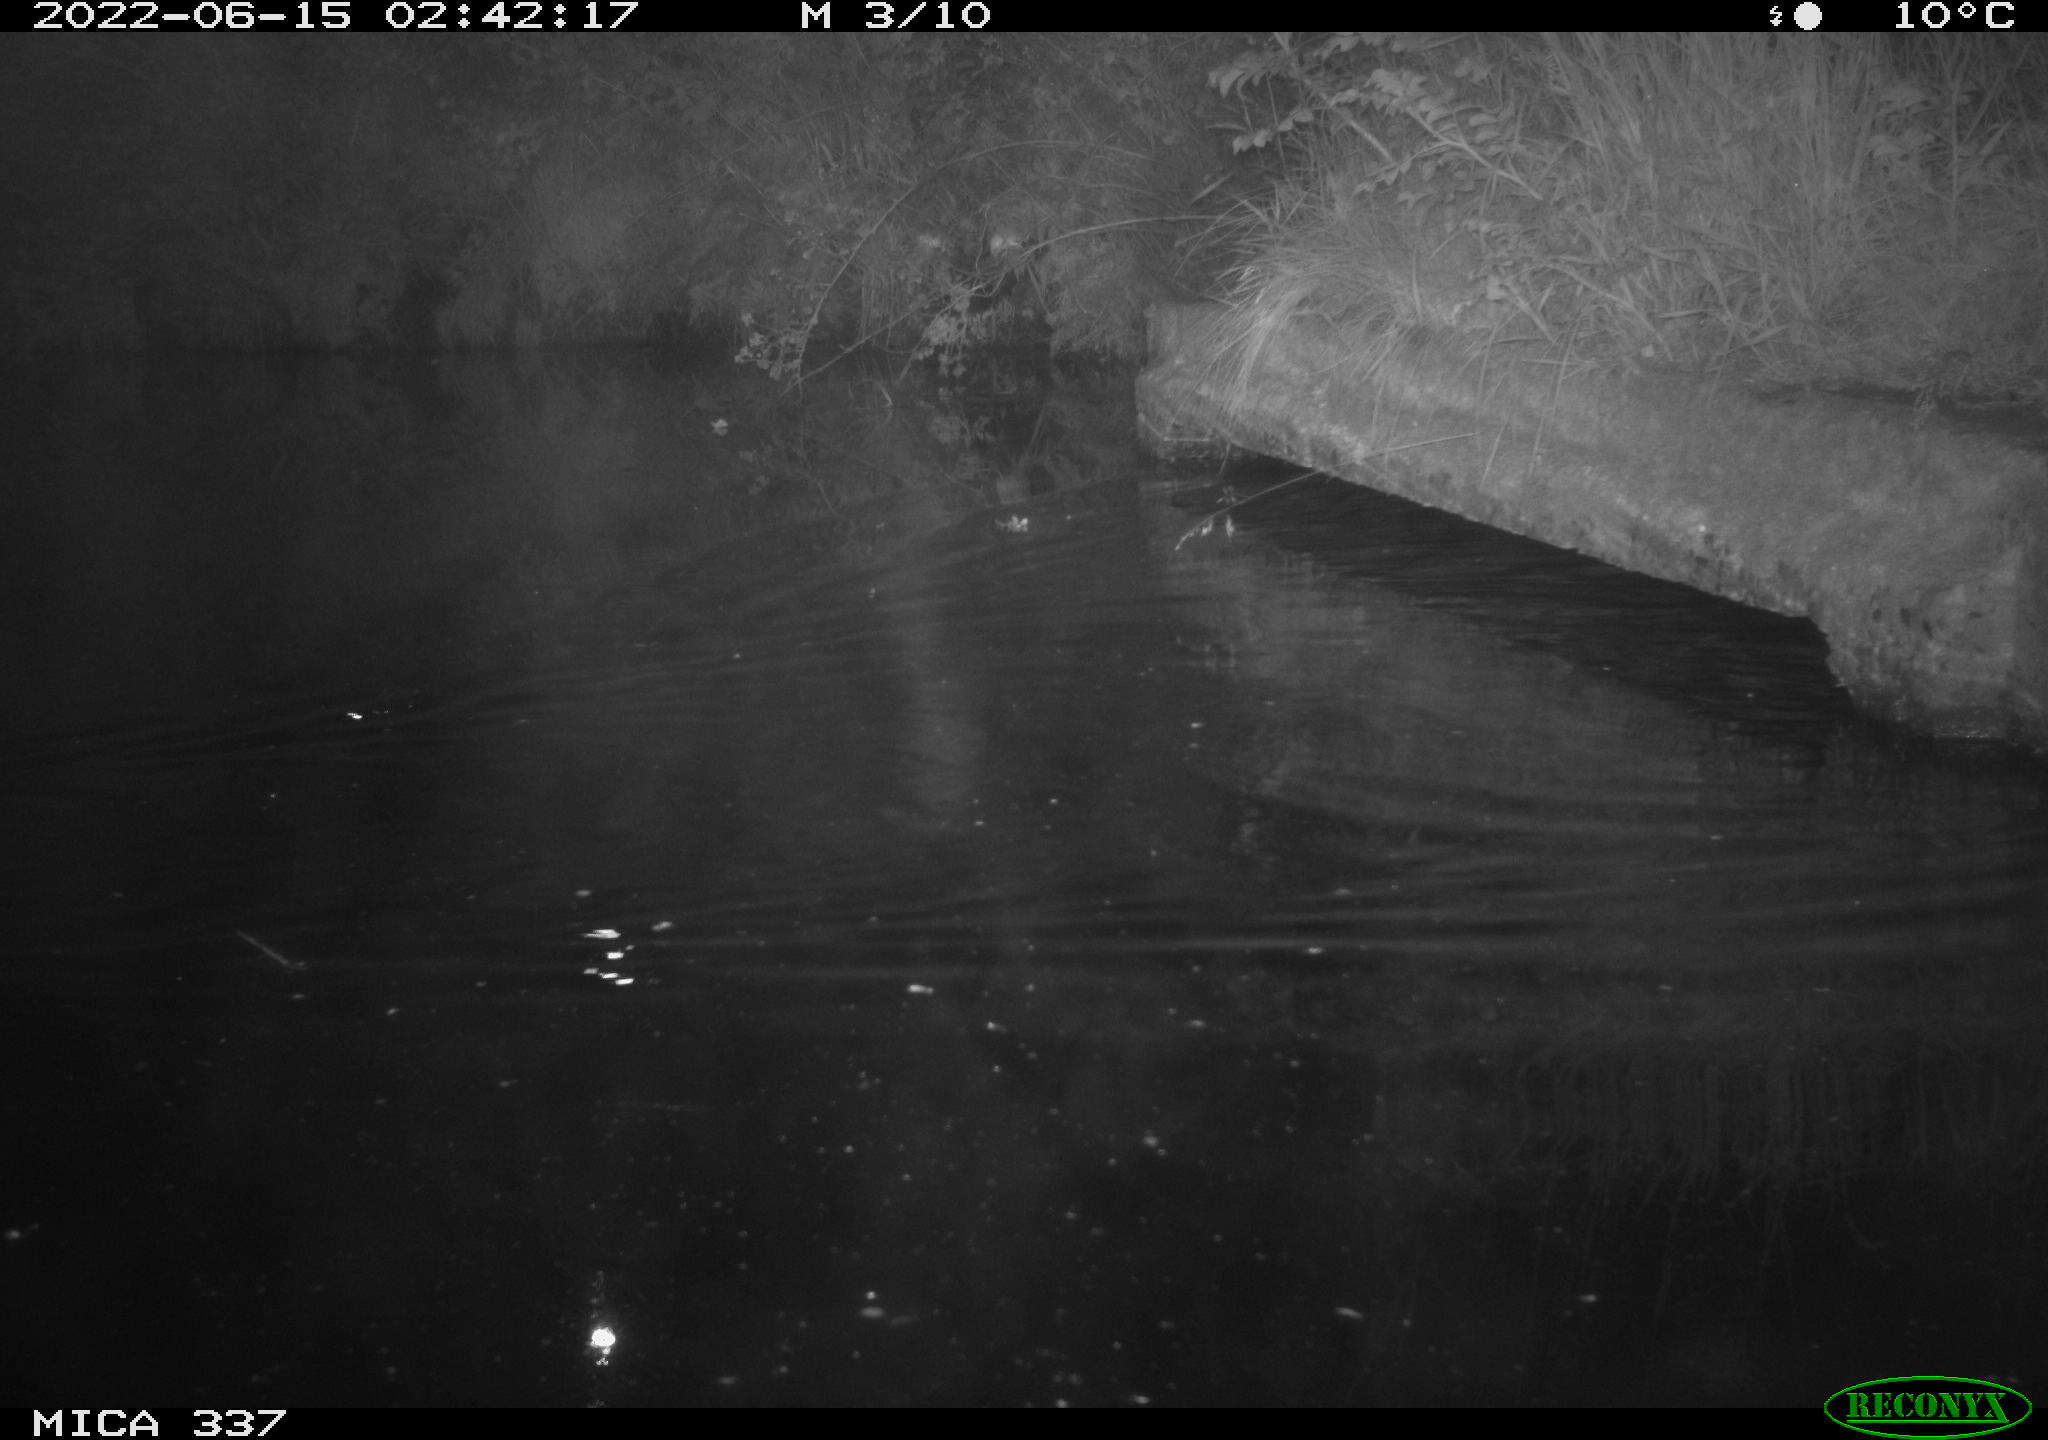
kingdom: Animalia
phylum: Chordata
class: Mammalia
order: Rodentia
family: Cricetidae
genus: Ondatra
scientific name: Ondatra zibethicus
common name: Muskrat
